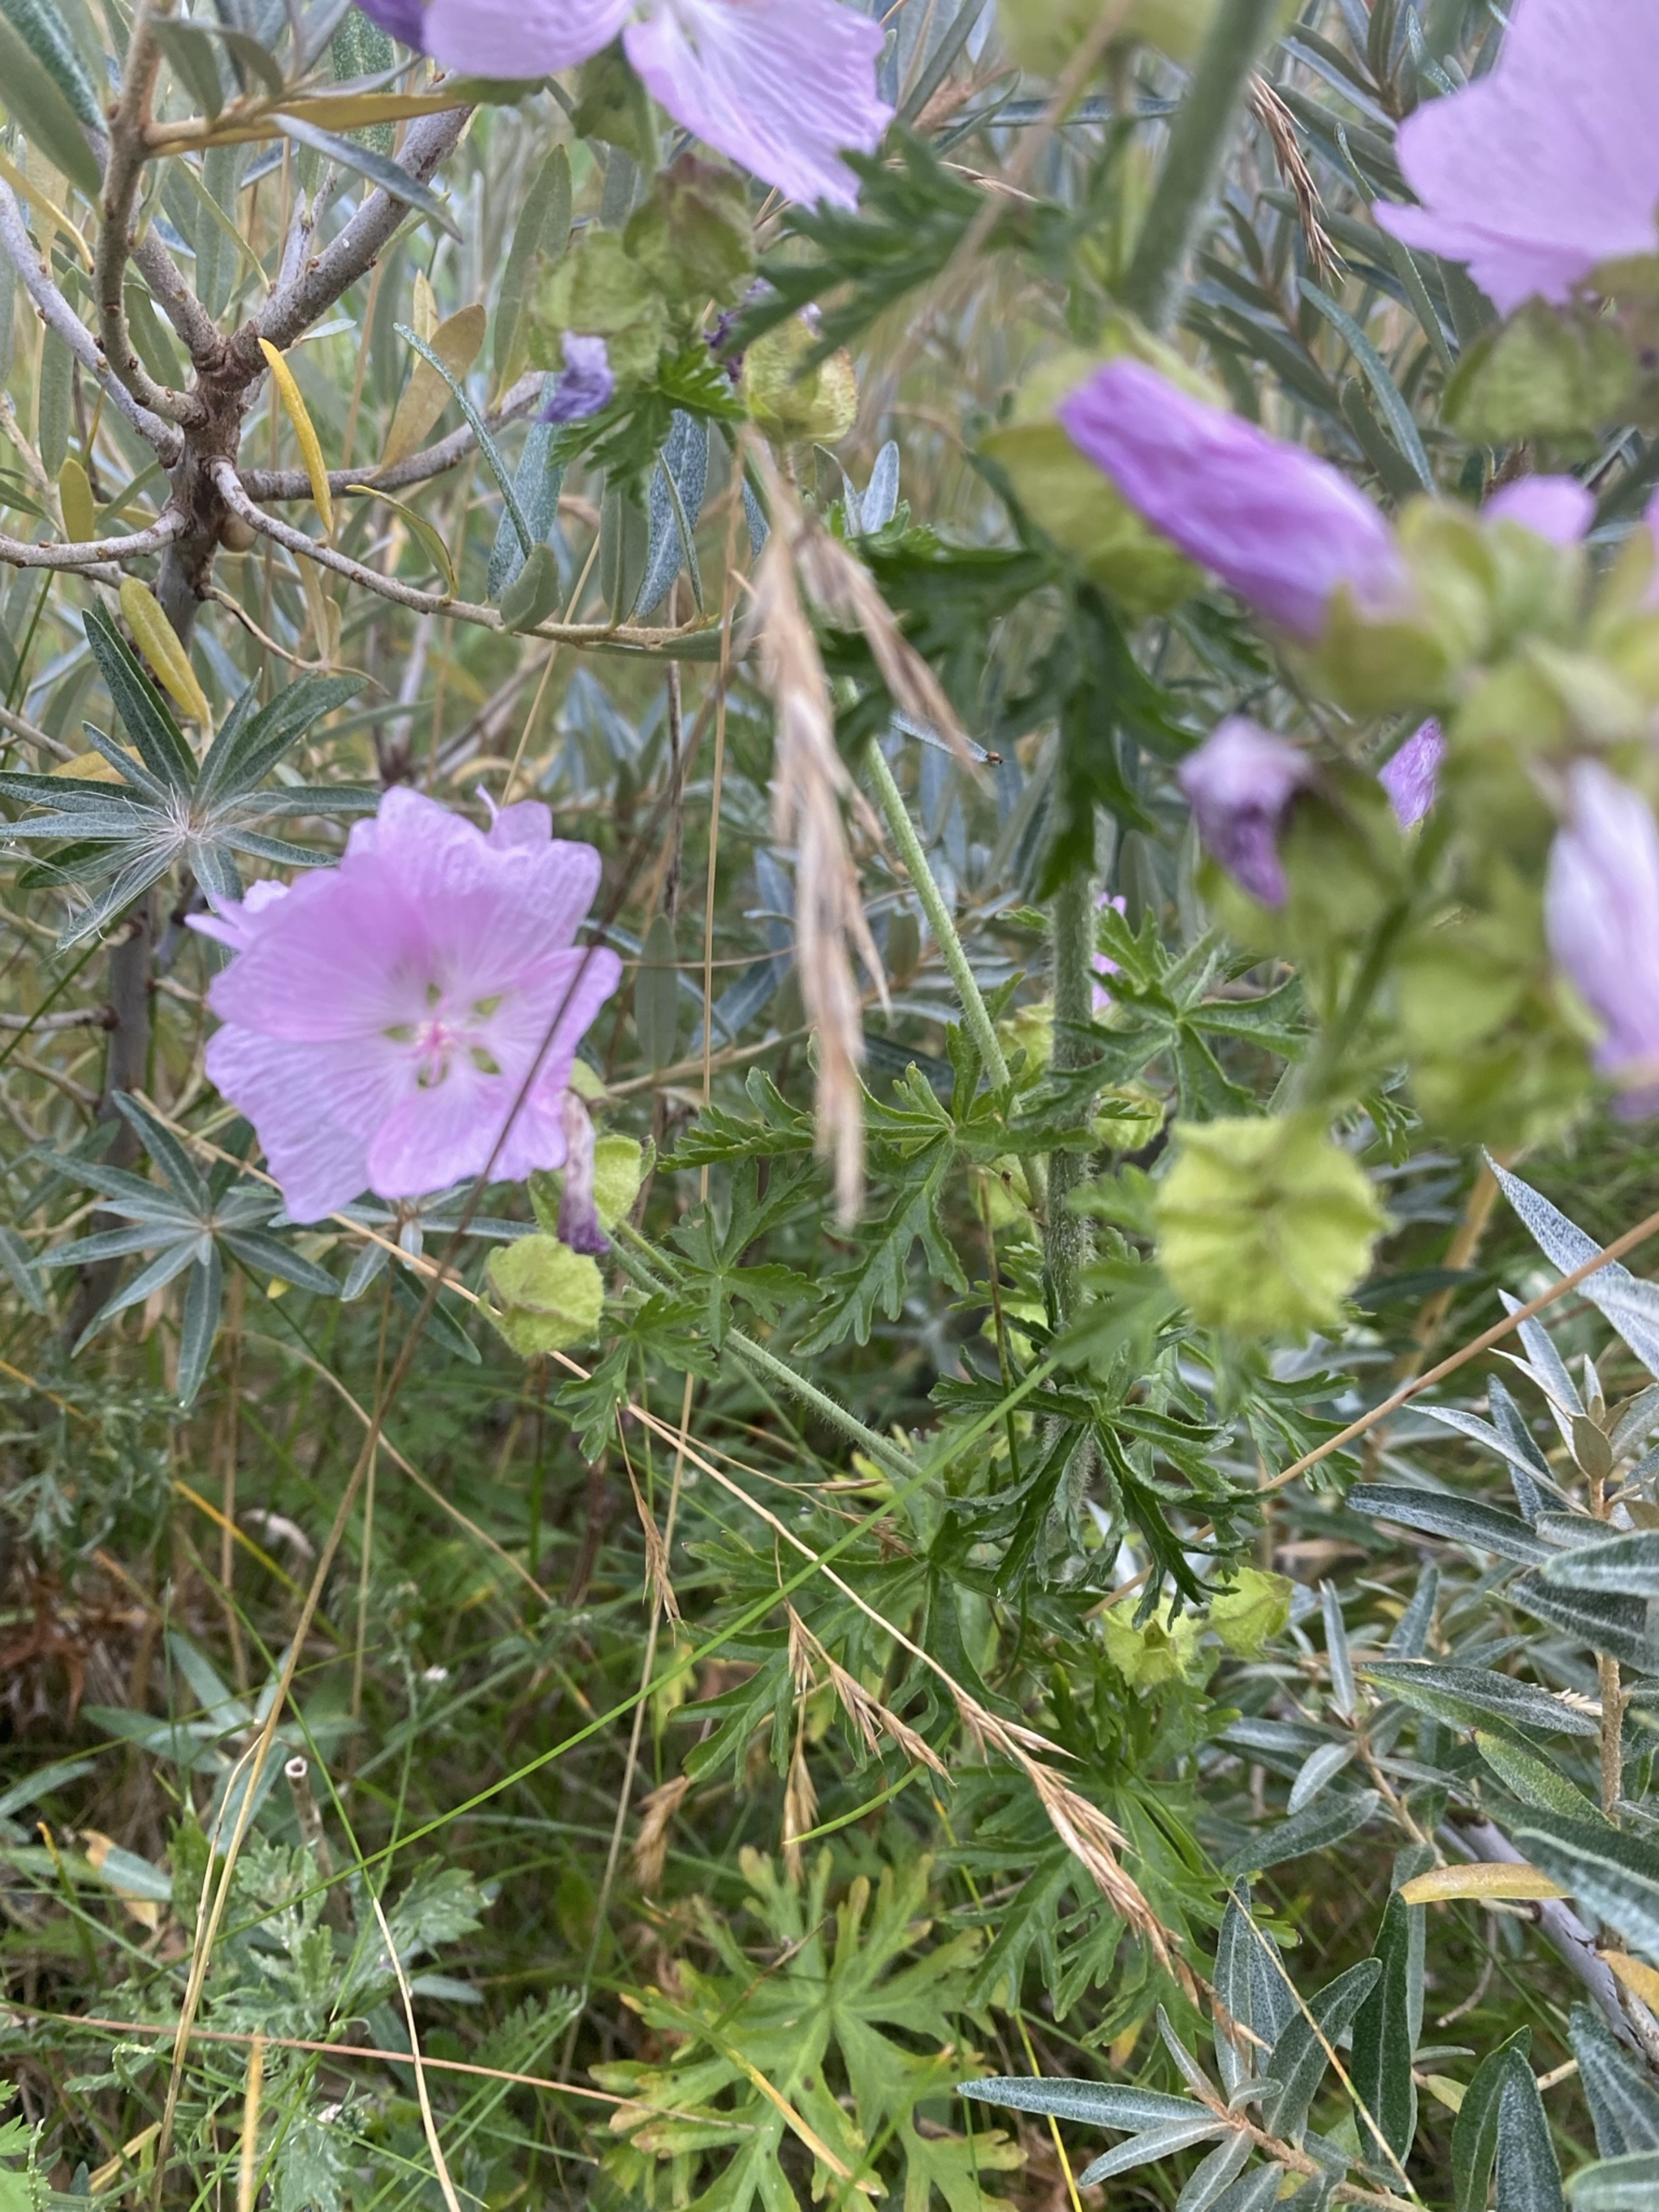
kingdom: Plantae
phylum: Tracheophyta
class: Magnoliopsida
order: Malvales
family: Malvaceae
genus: Malva
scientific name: Malva moschata
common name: Moskus-katost
